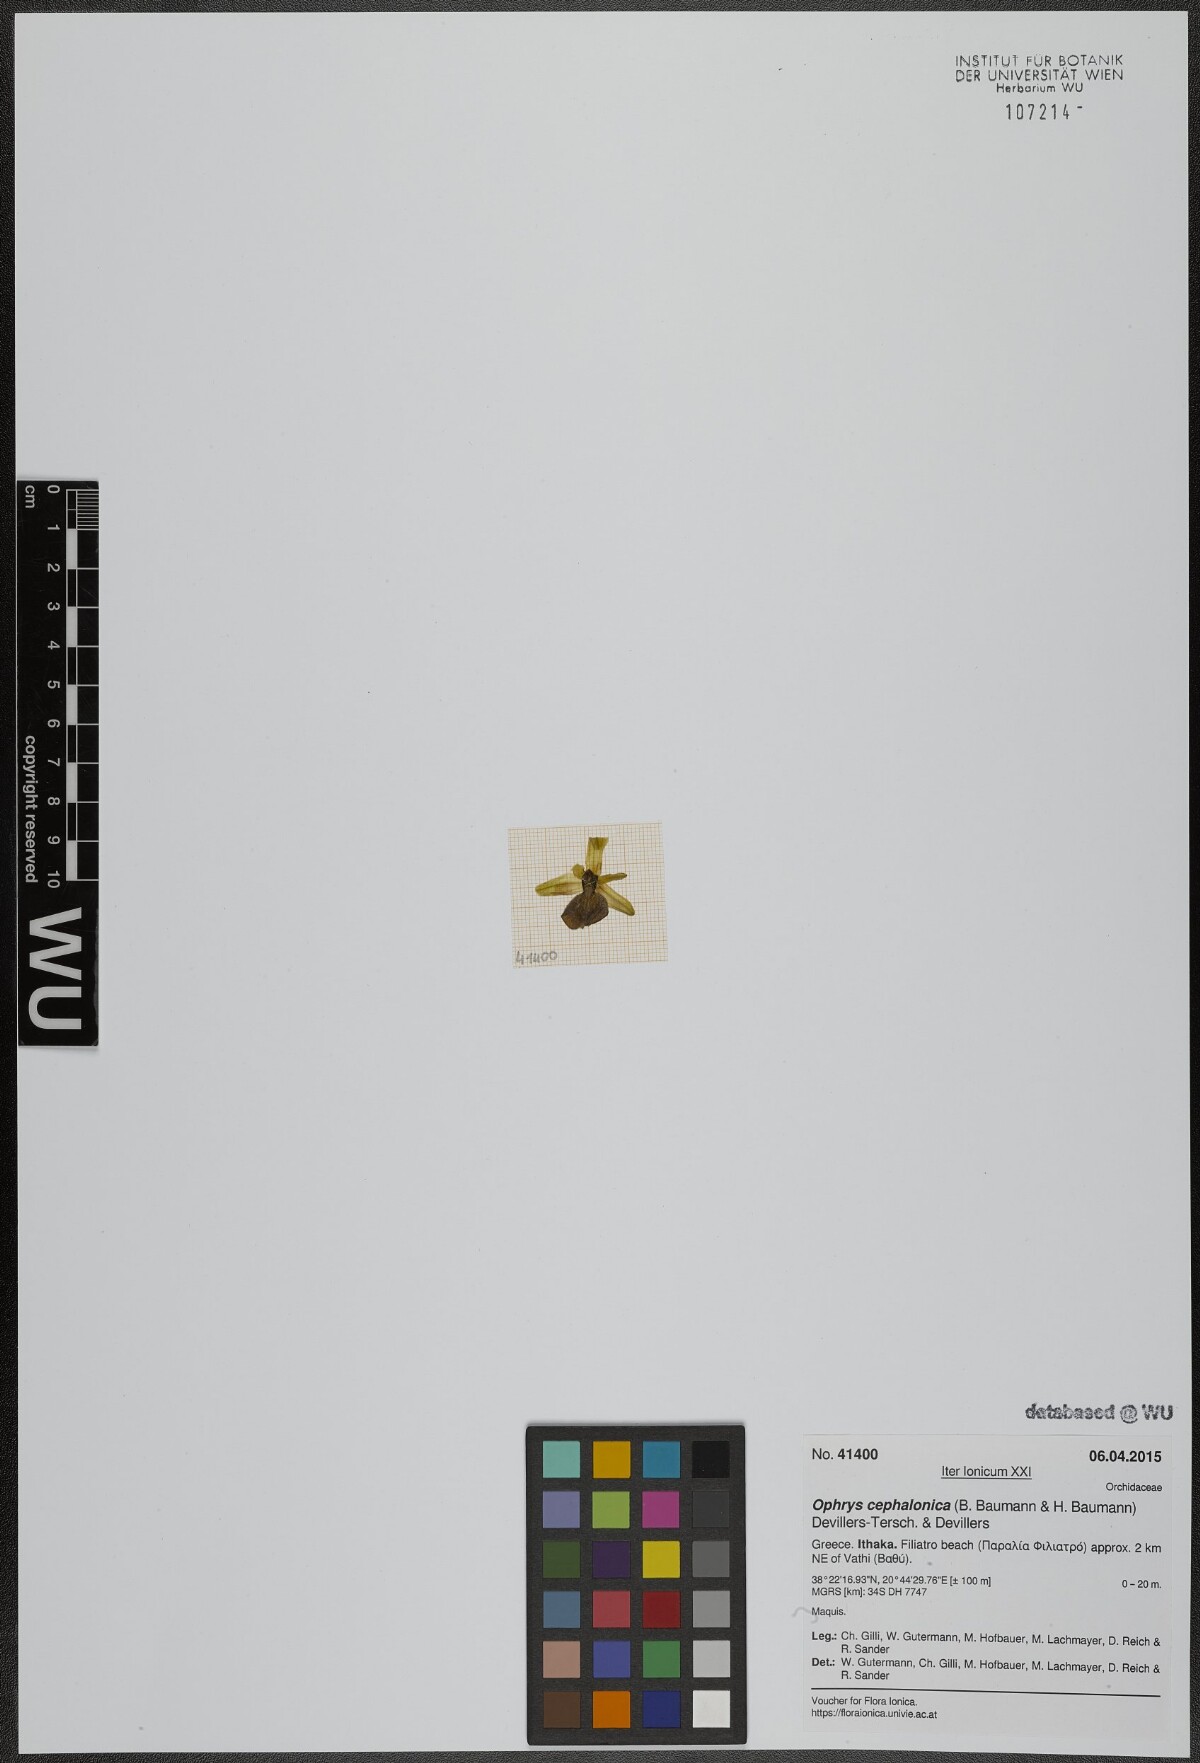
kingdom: Plantae
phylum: Tracheophyta
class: Liliopsida
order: Asparagales
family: Orchidaceae
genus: Ophrys
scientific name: Ophrys sphegodes
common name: Early spider-orchid
